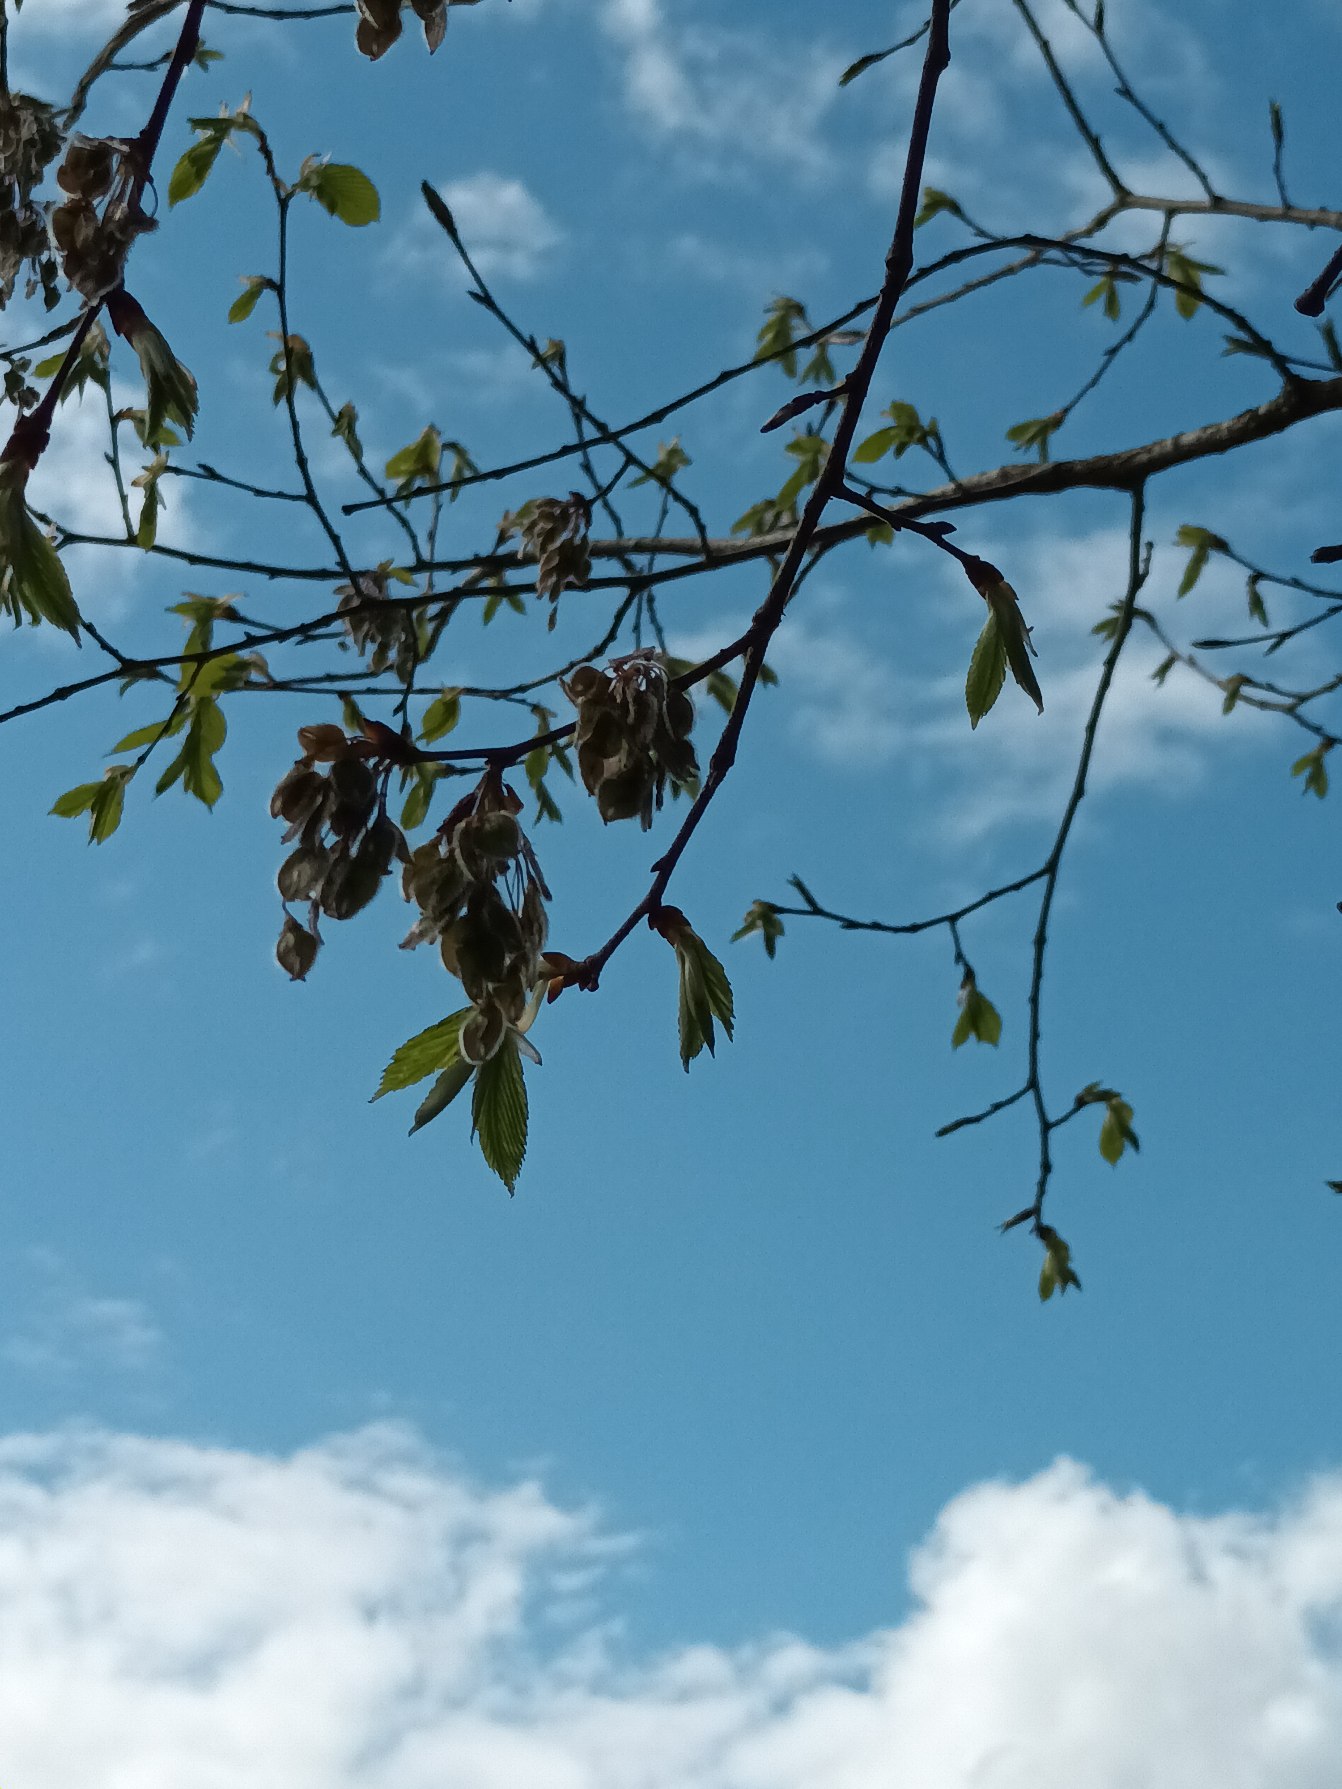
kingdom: Plantae
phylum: Tracheophyta
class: Magnoliopsida
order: Rosales
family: Ulmaceae
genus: Ulmus
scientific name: Ulmus laevis
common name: Skærm-elm
